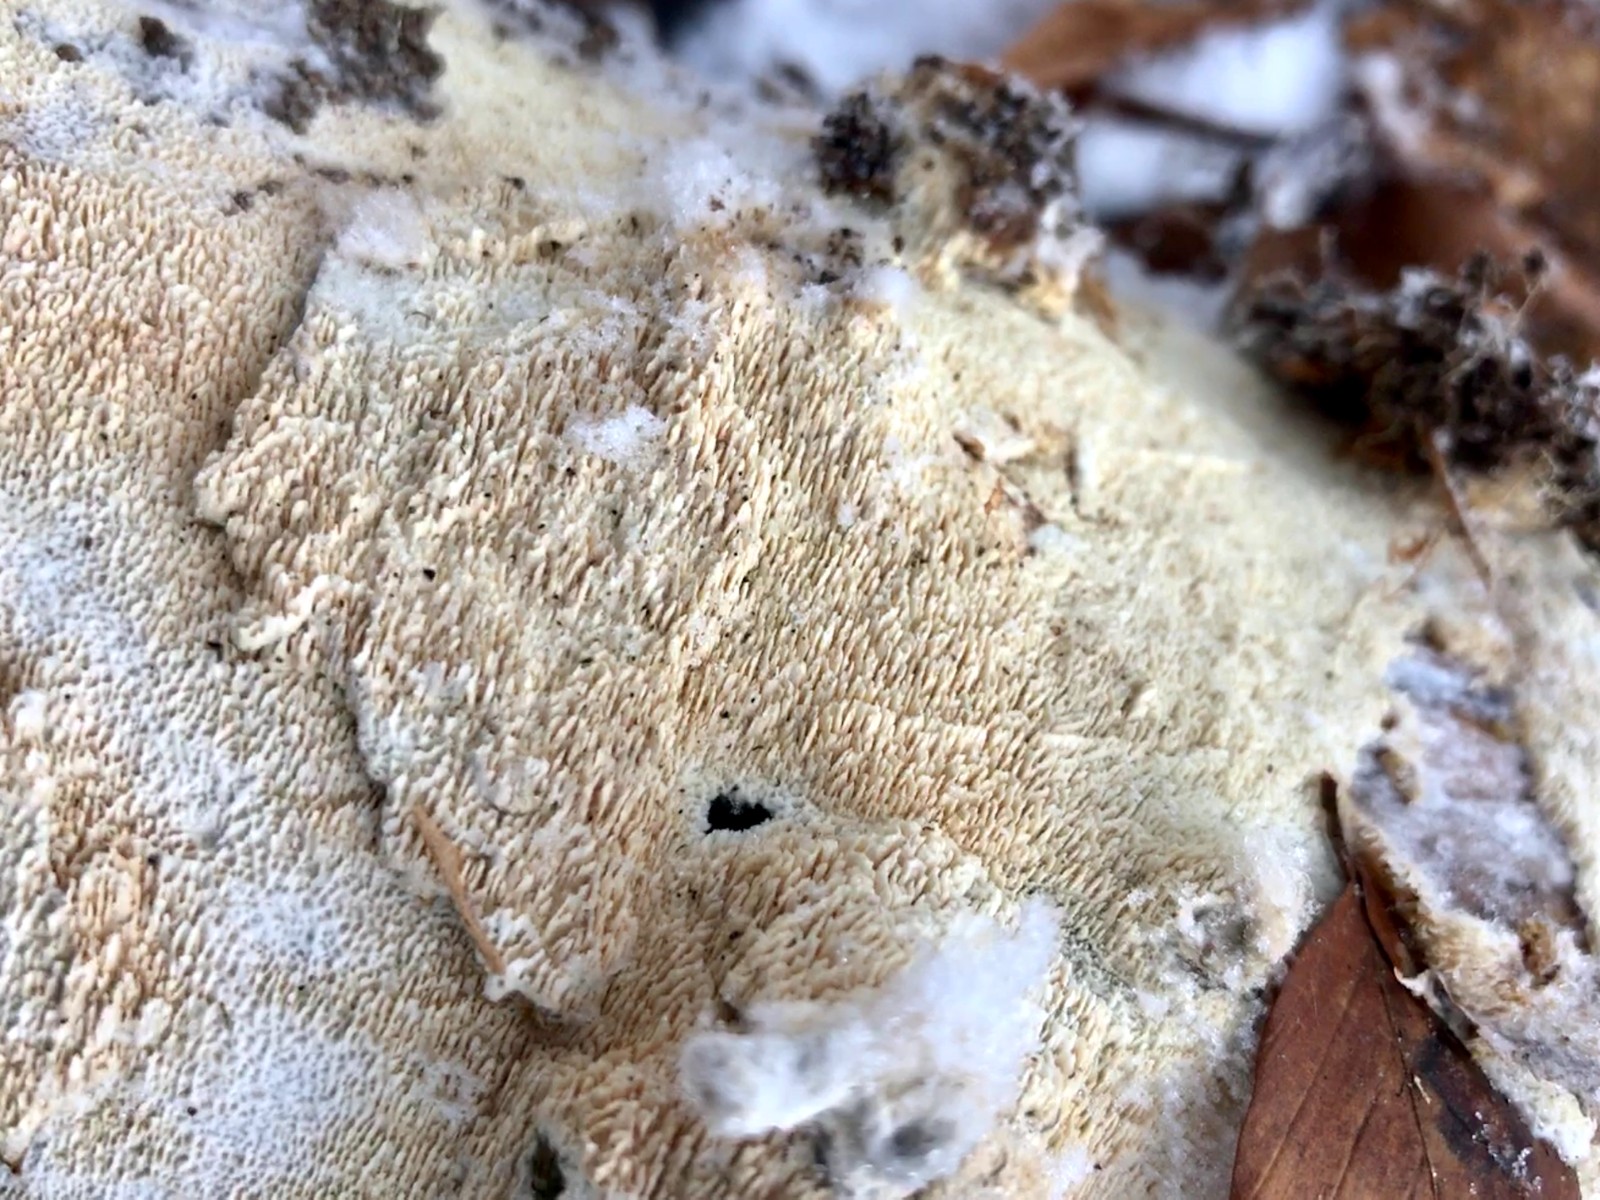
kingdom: Fungi
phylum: Basidiomycota
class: Agaricomycetes
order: Hymenochaetales
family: Schizoporaceae
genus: Schizopora
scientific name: Schizopora paradoxa
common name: hvid tandsvamp
